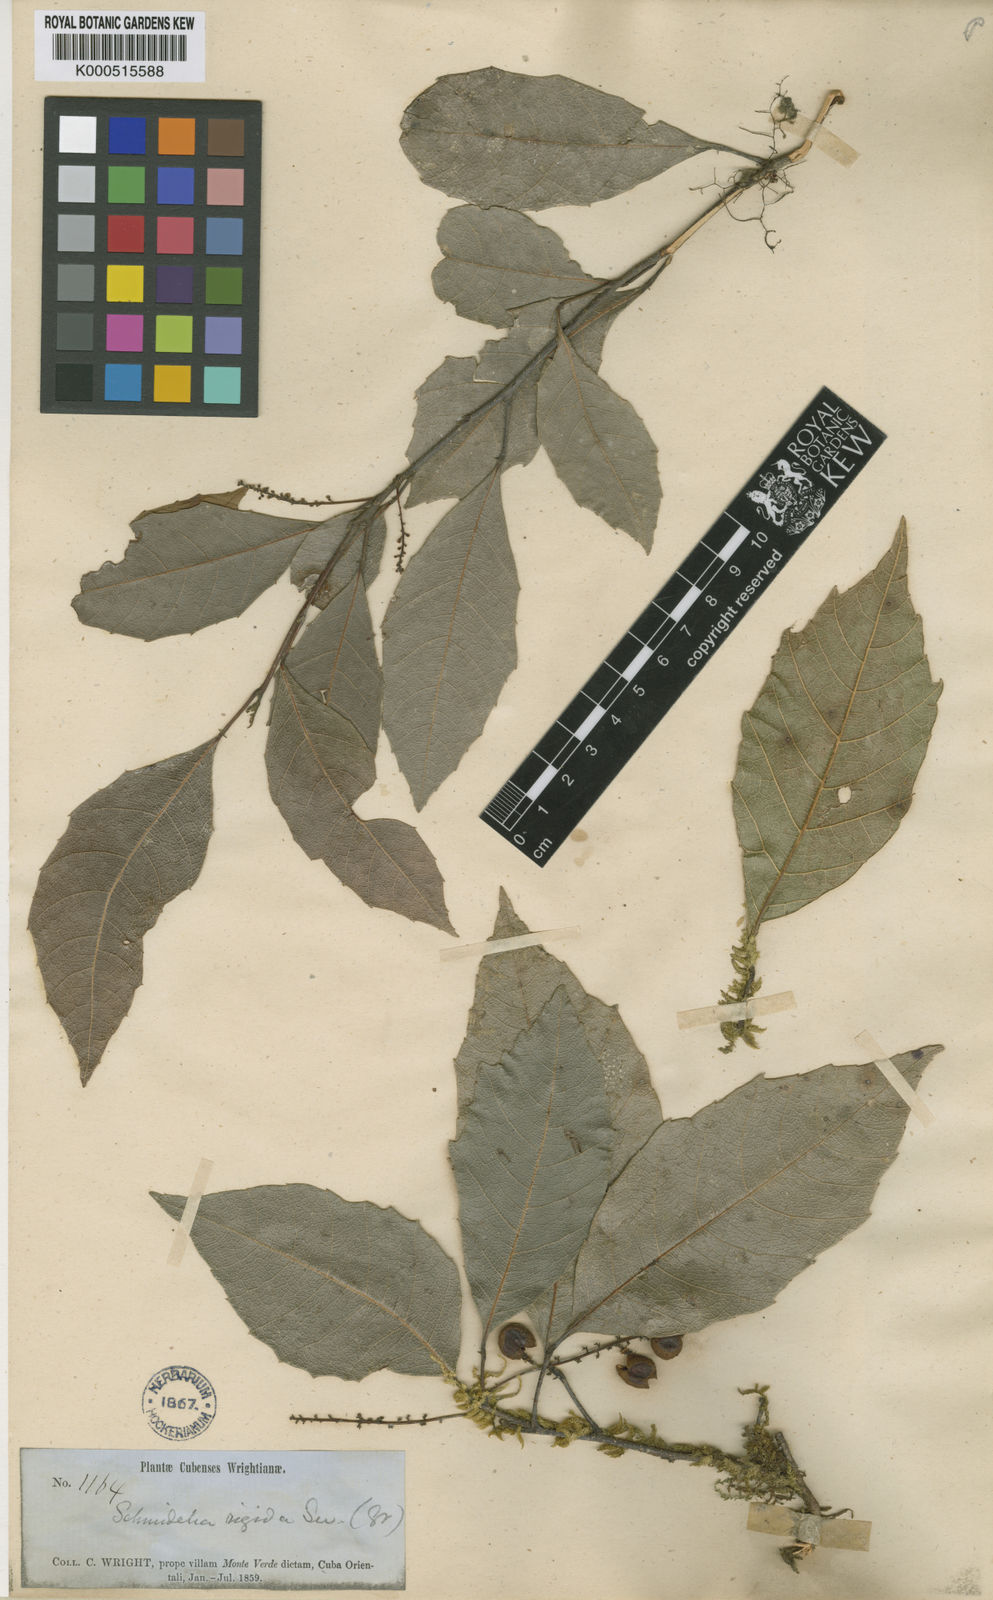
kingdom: Plantae
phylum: Tracheophyta
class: Magnoliopsida
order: Sapindales
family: Sapindaceae
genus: Allophylus
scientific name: Allophylus reticulatus
